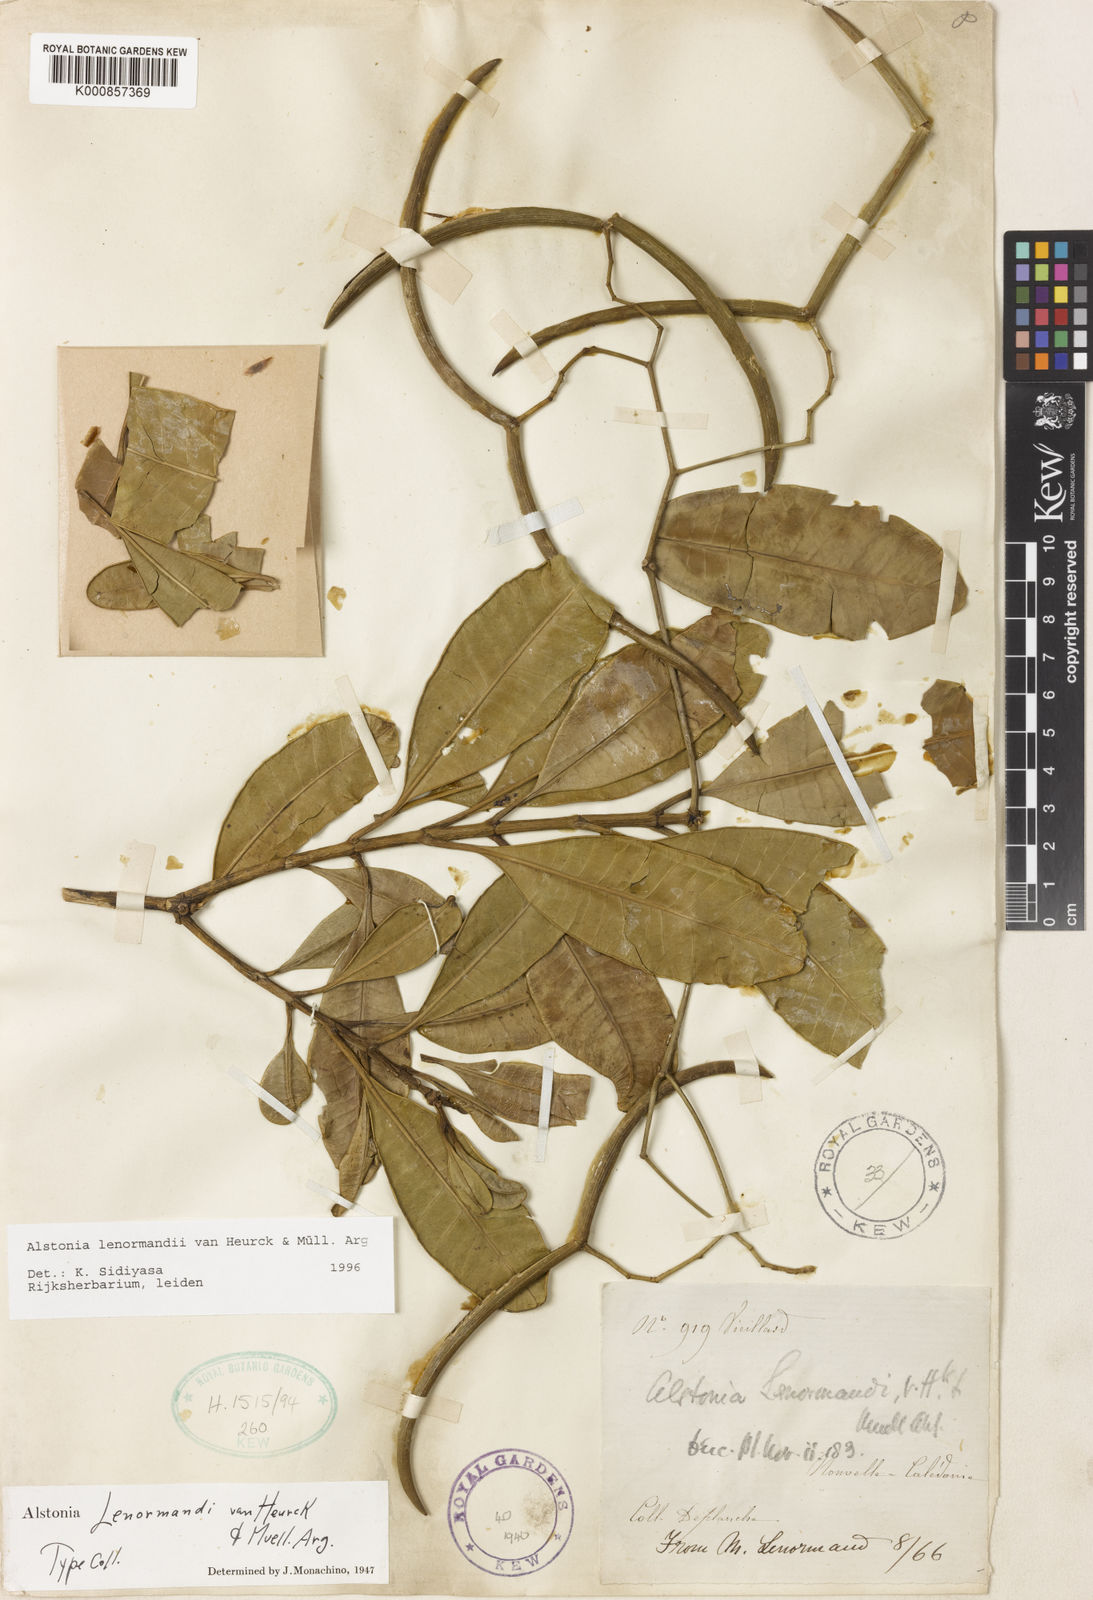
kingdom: Plantae
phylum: Tracheophyta
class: Magnoliopsida
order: Gentianales
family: Apocynaceae
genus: Alstonia
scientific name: Alstonia
